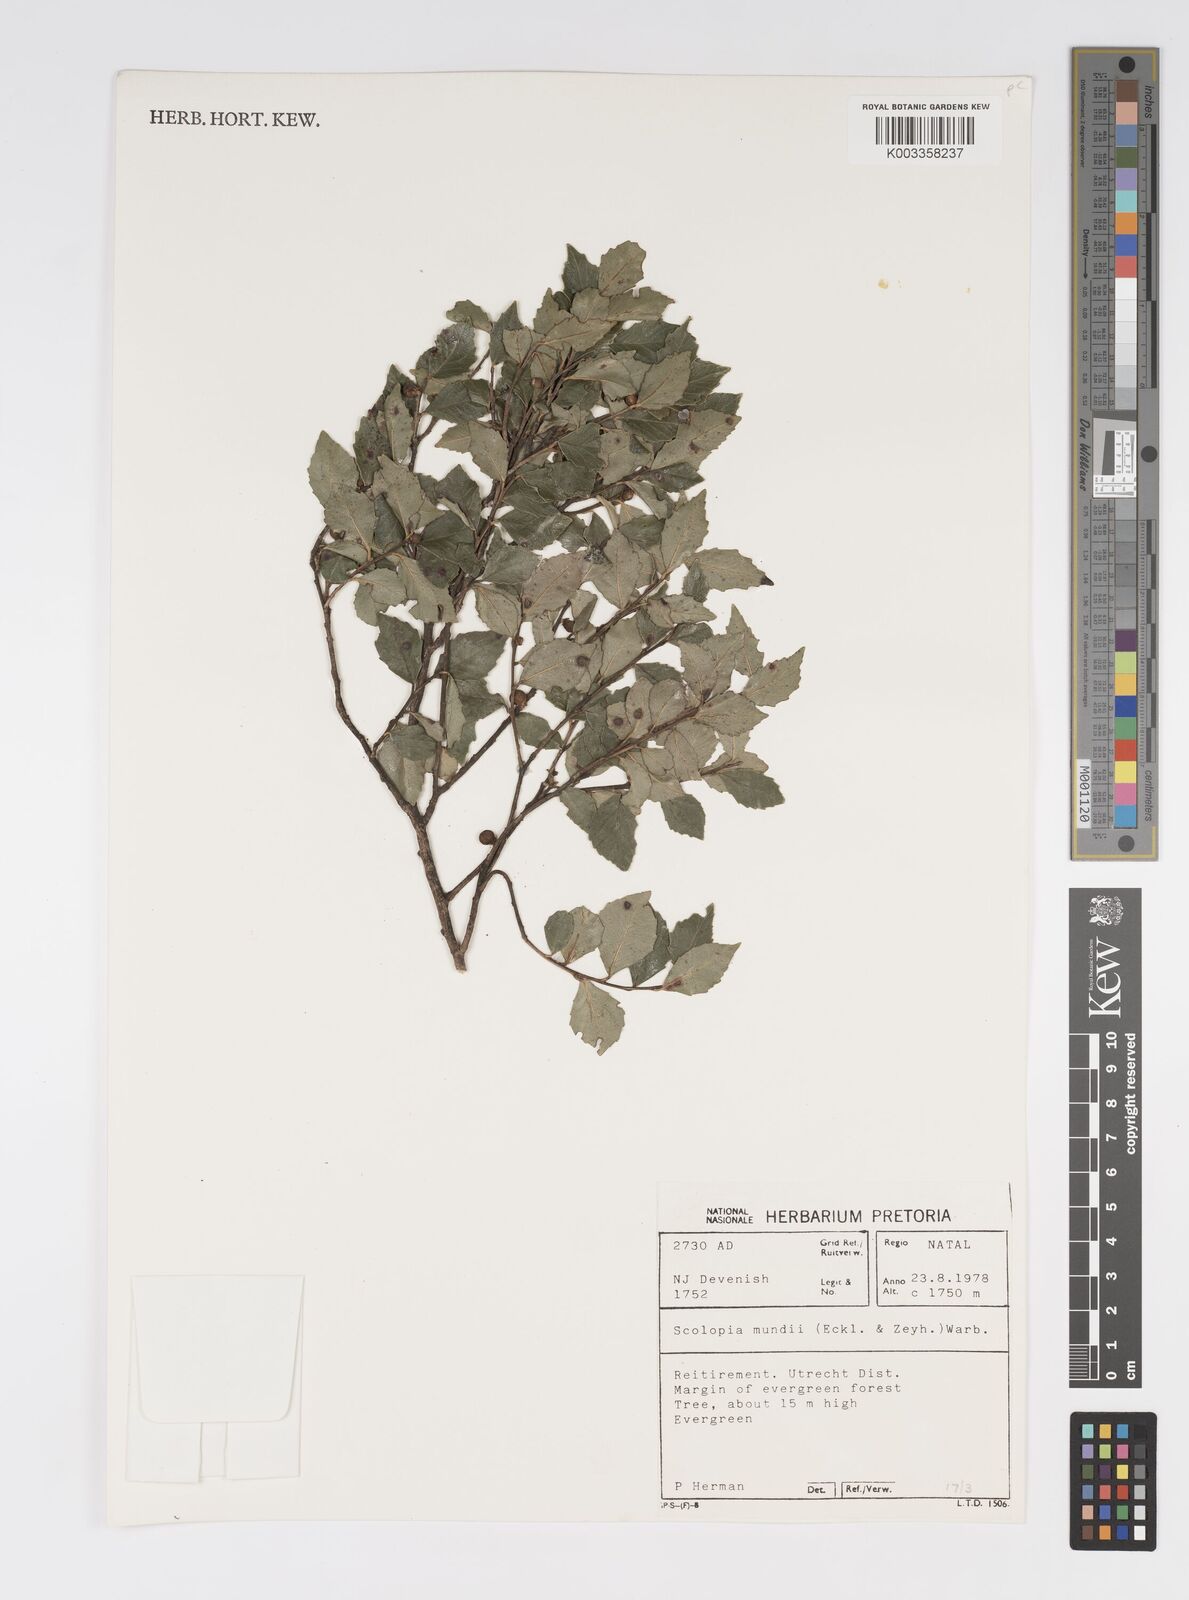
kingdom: Plantae
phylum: Tracheophyta
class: Magnoliopsida
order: Malpighiales
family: Salicaceae
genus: Scolopia
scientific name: Scolopia mundii
